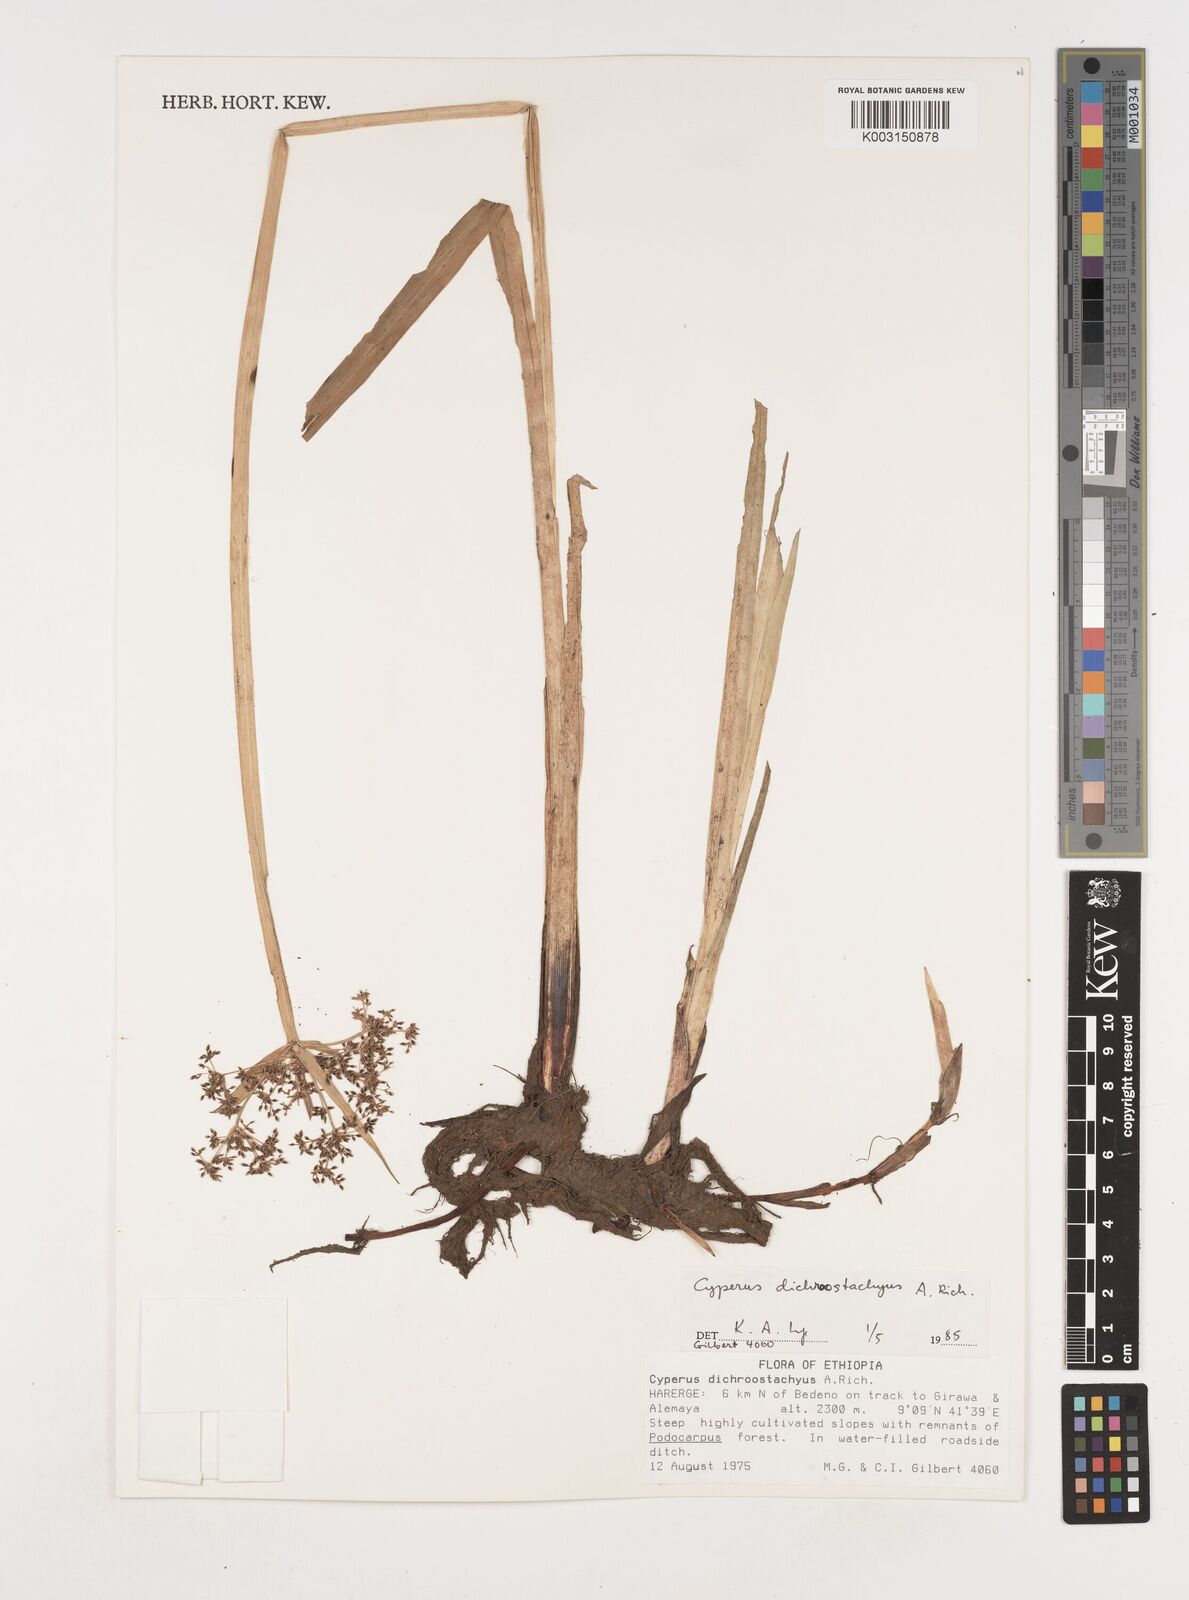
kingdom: Plantae
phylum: Tracheophyta
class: Liliopsida
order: Poales
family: Cyperaceae
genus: Cyperus
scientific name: Cyperus dichrostachyus
